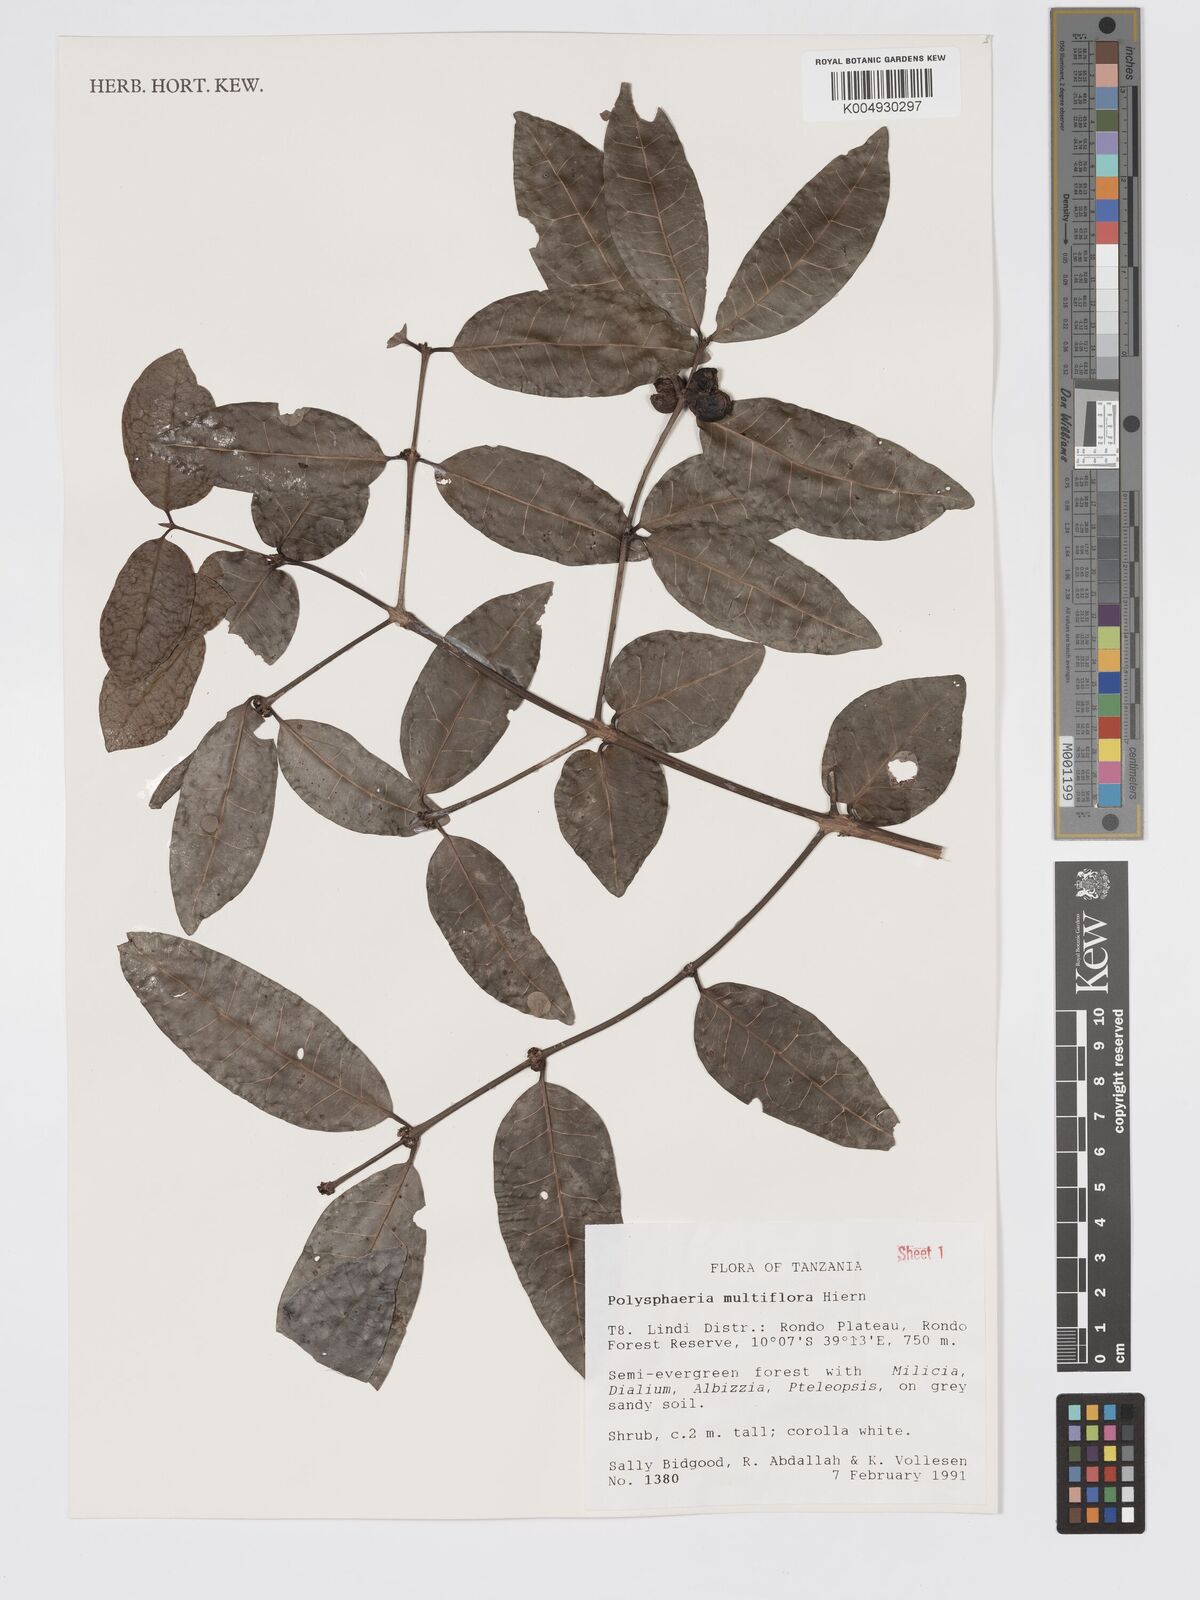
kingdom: Plantae
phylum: Tracheophyta
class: Magnoliopsida
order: Gentianales
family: Rubiaceae
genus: Polysphaeria
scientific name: Polysphaeria multiflora
